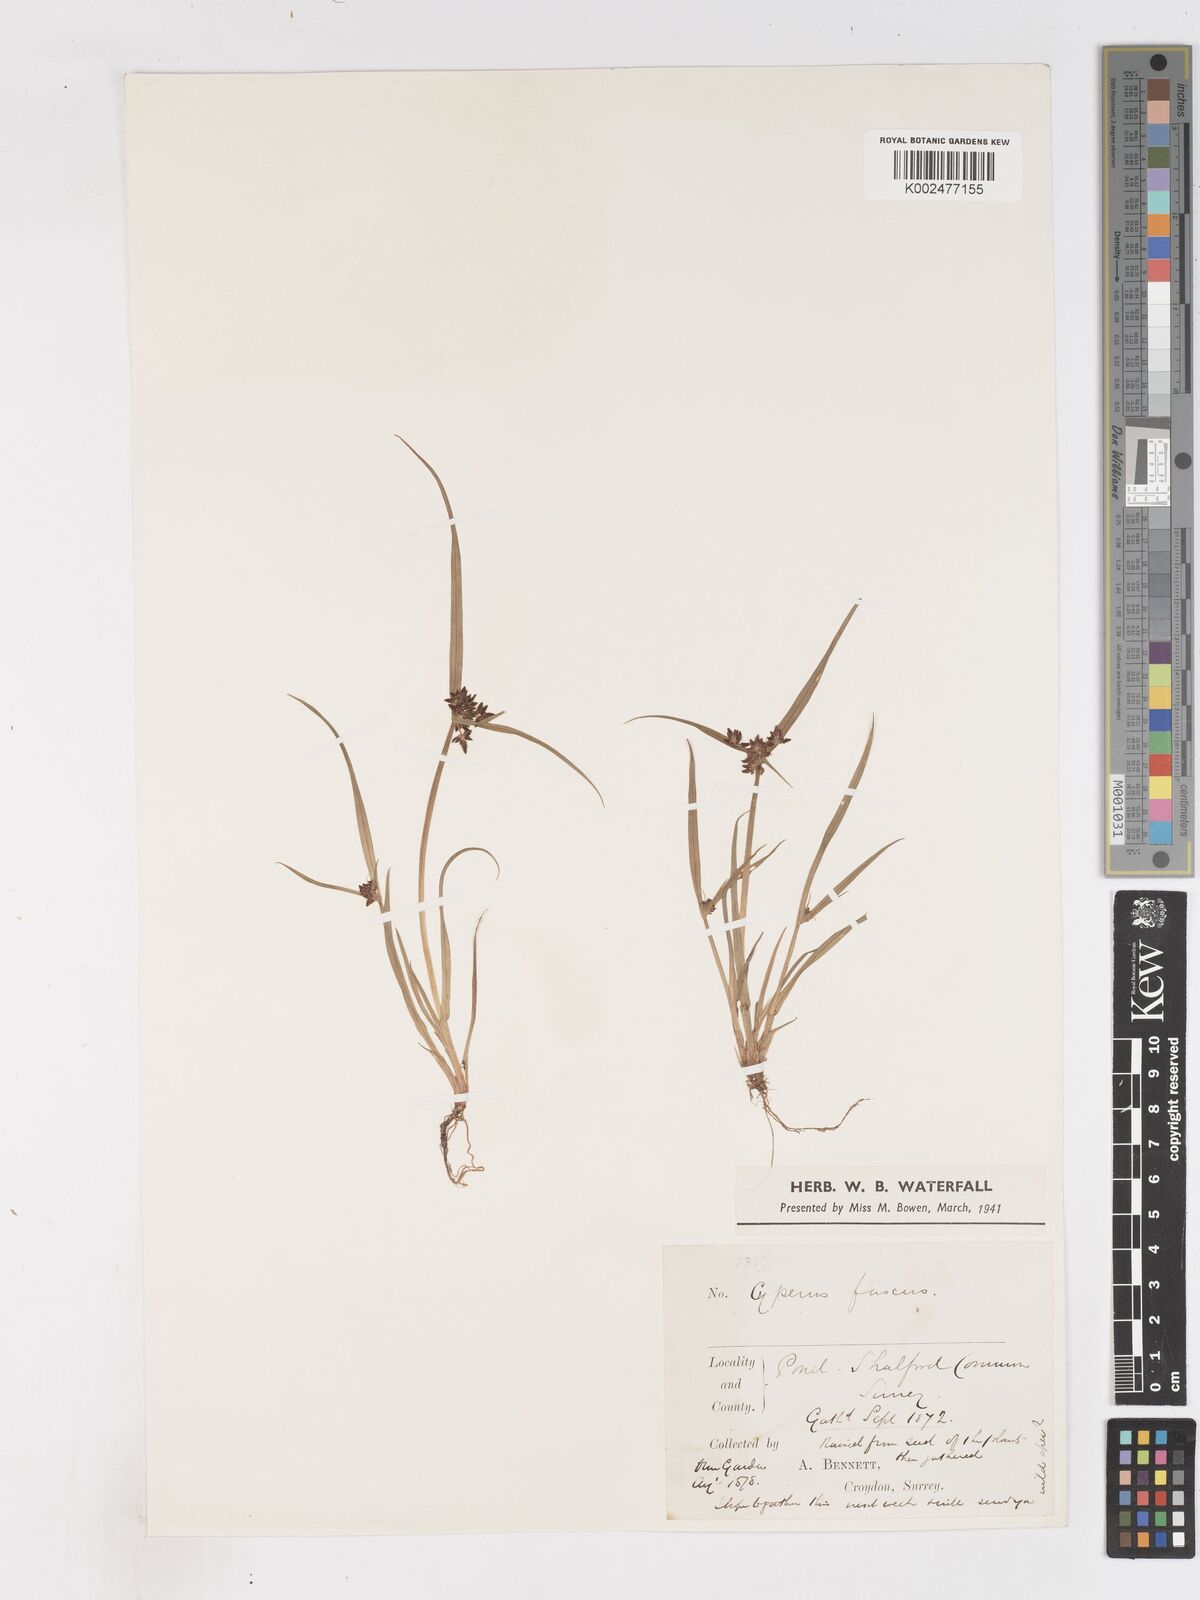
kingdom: Plantae
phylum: Tracheophyta
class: Liliopsida
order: Poales
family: Cyperaceae
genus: Cyperus
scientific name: Cyperus fuscus
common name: Brown galingale
